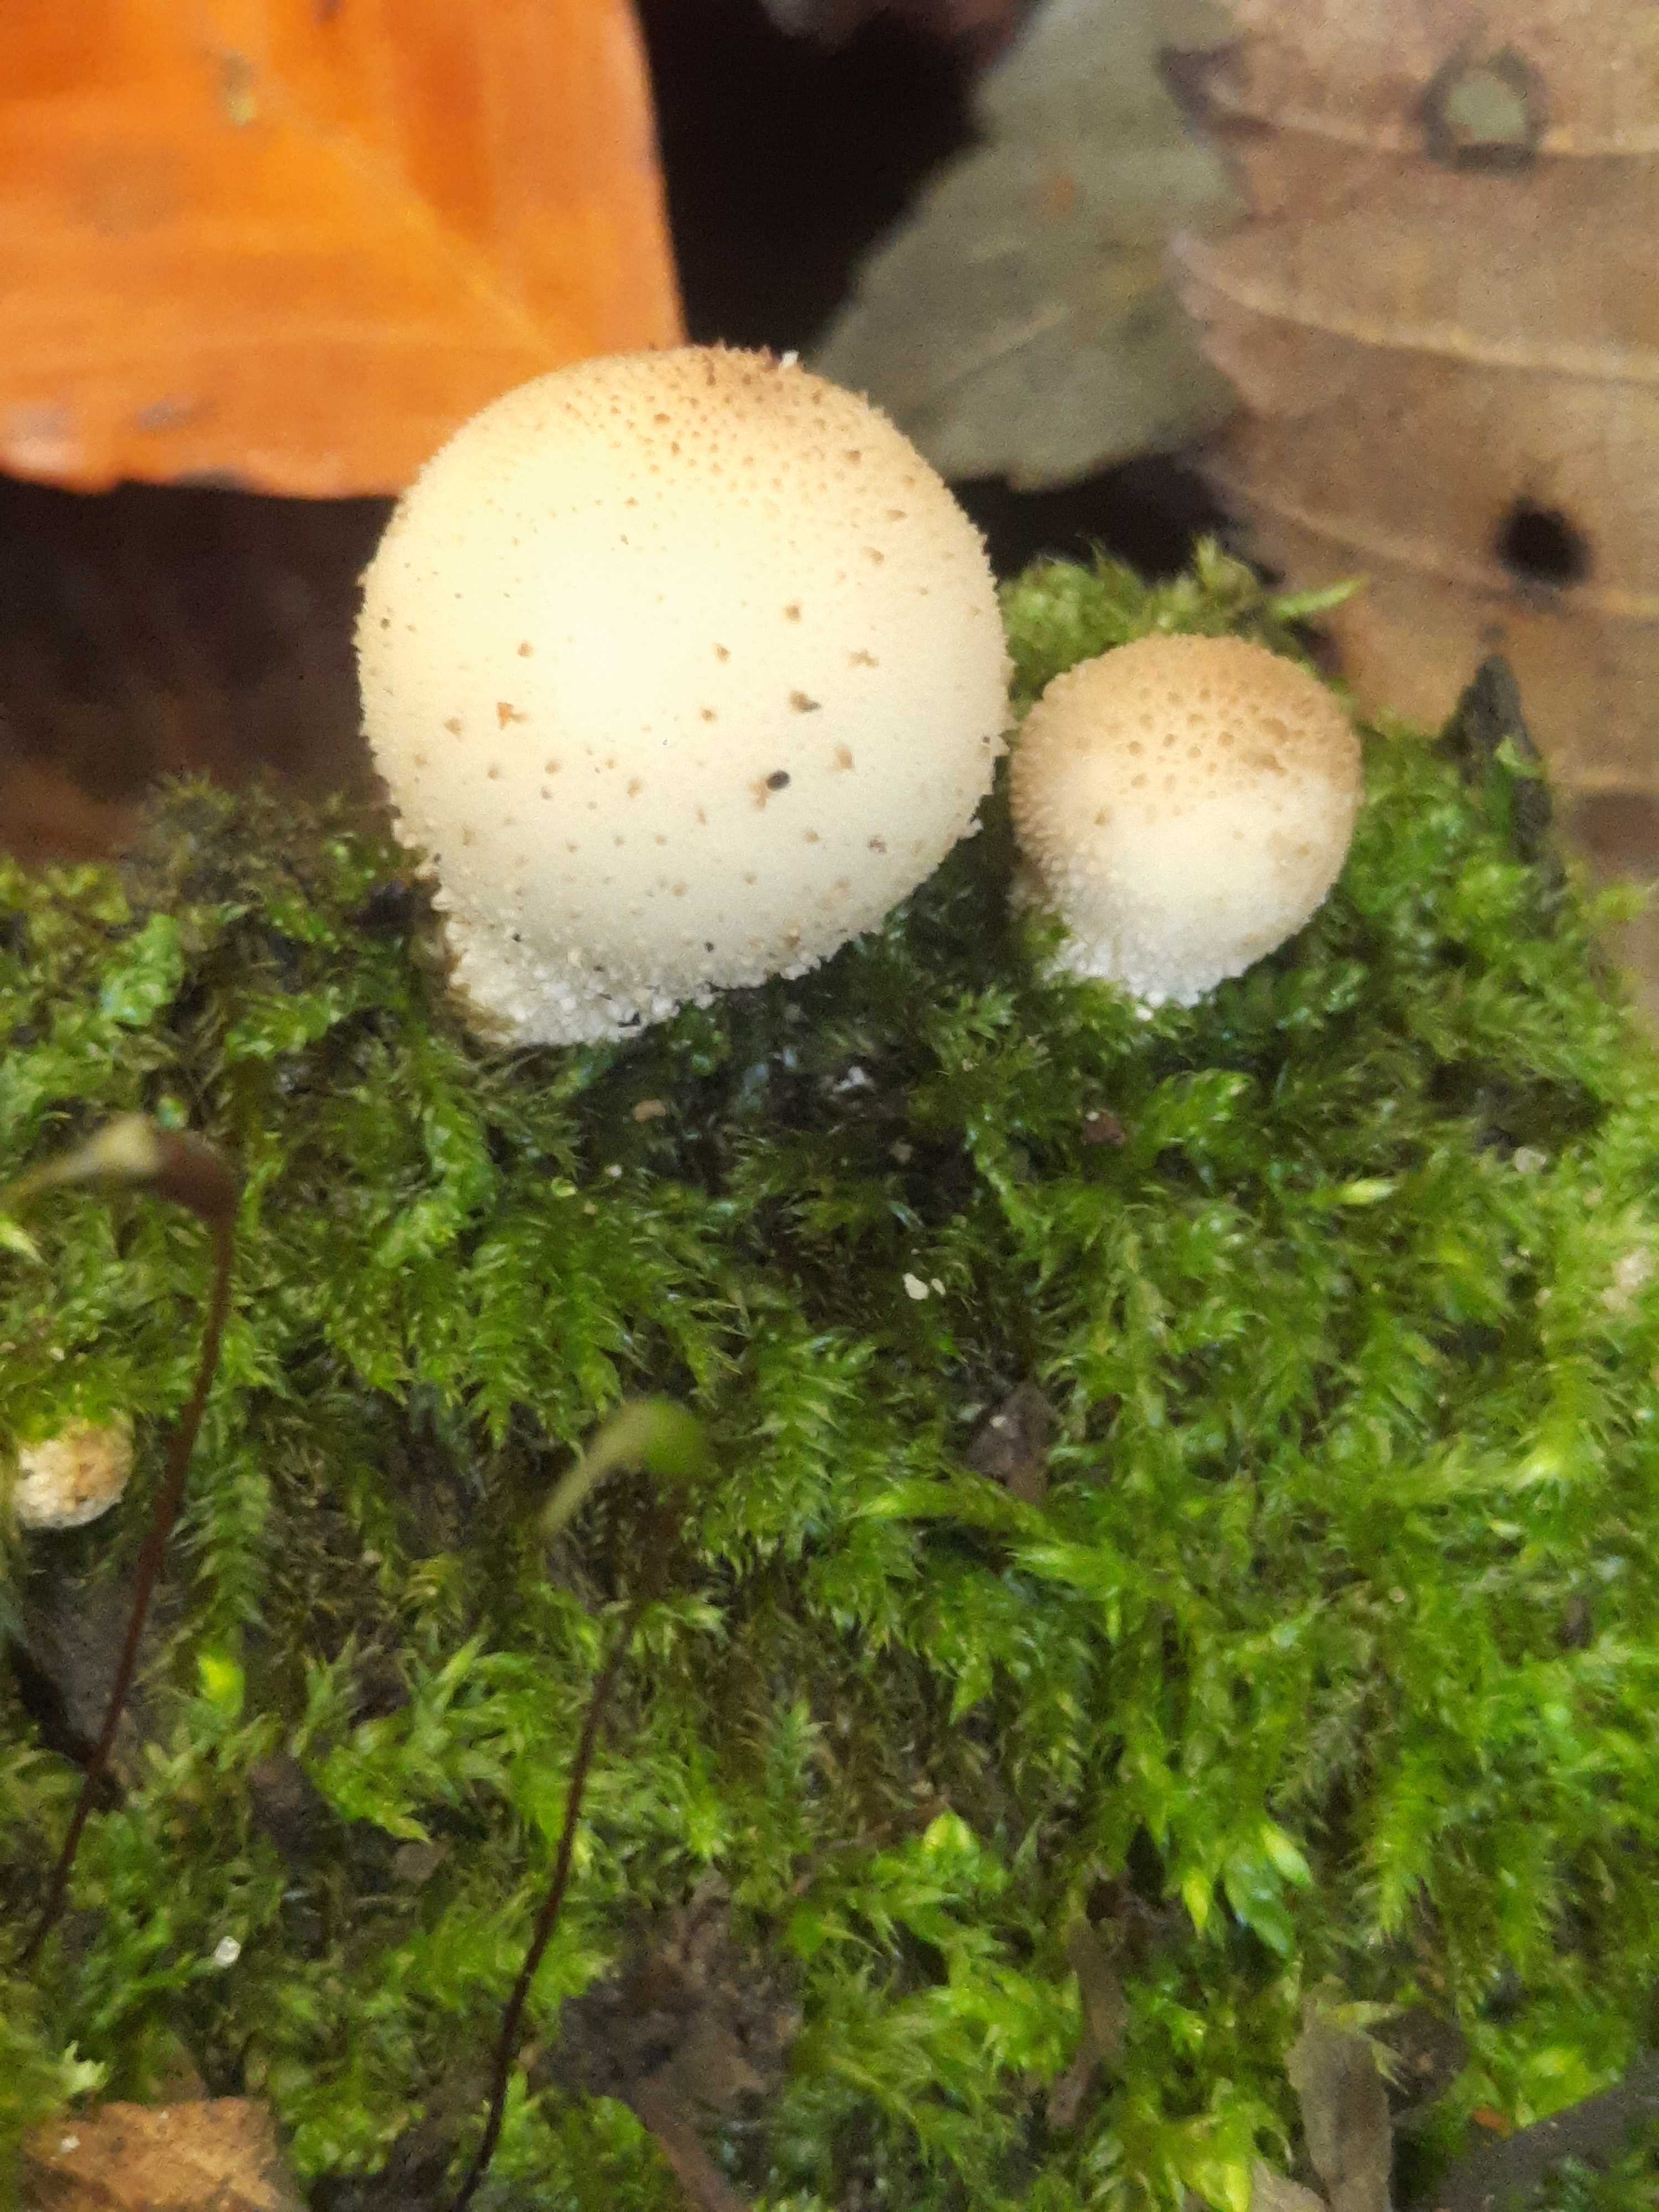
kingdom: Fungi
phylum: Basidiomycota
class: Agaricomycetes
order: Agaricales
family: Lycoperdaceae
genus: Apioperdon
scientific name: Apioperdon pyriforme
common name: pære-støvbold
